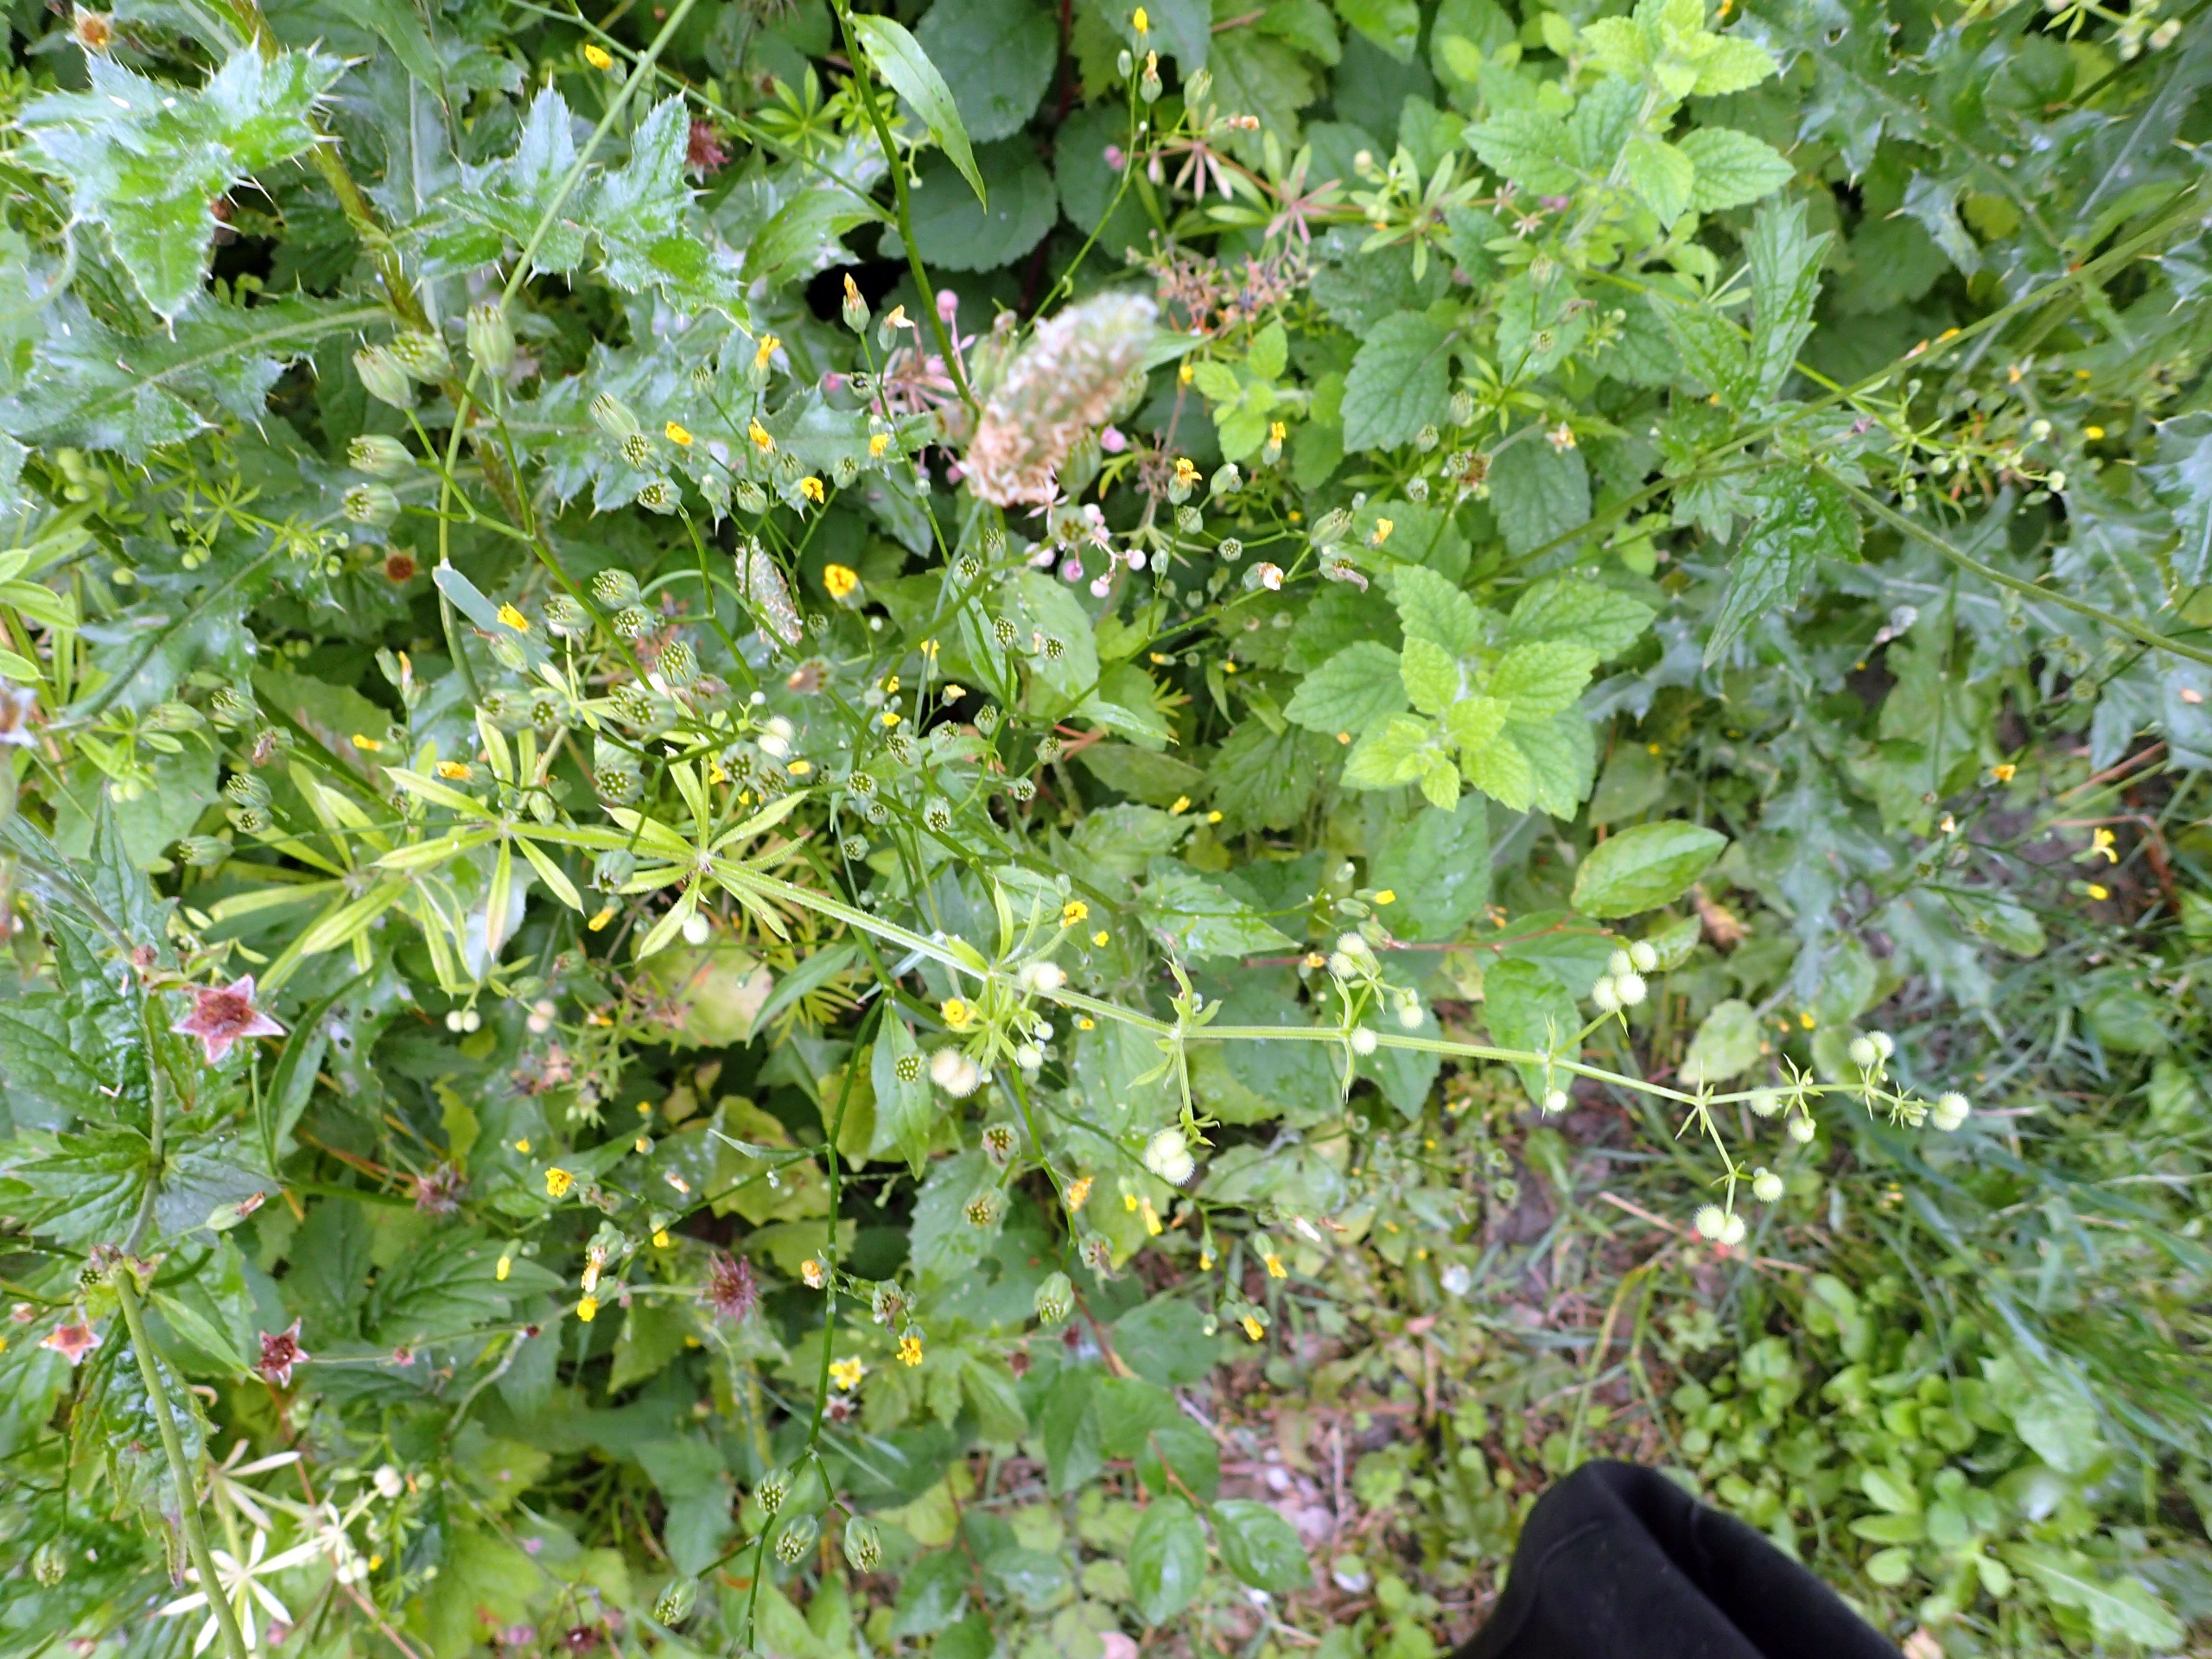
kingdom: Plantae
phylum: Tracheophyta
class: Magnoliopsida
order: Gentianales
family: Rubiaceae
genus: Galium
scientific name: Galium aparine
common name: Burre-snerre
